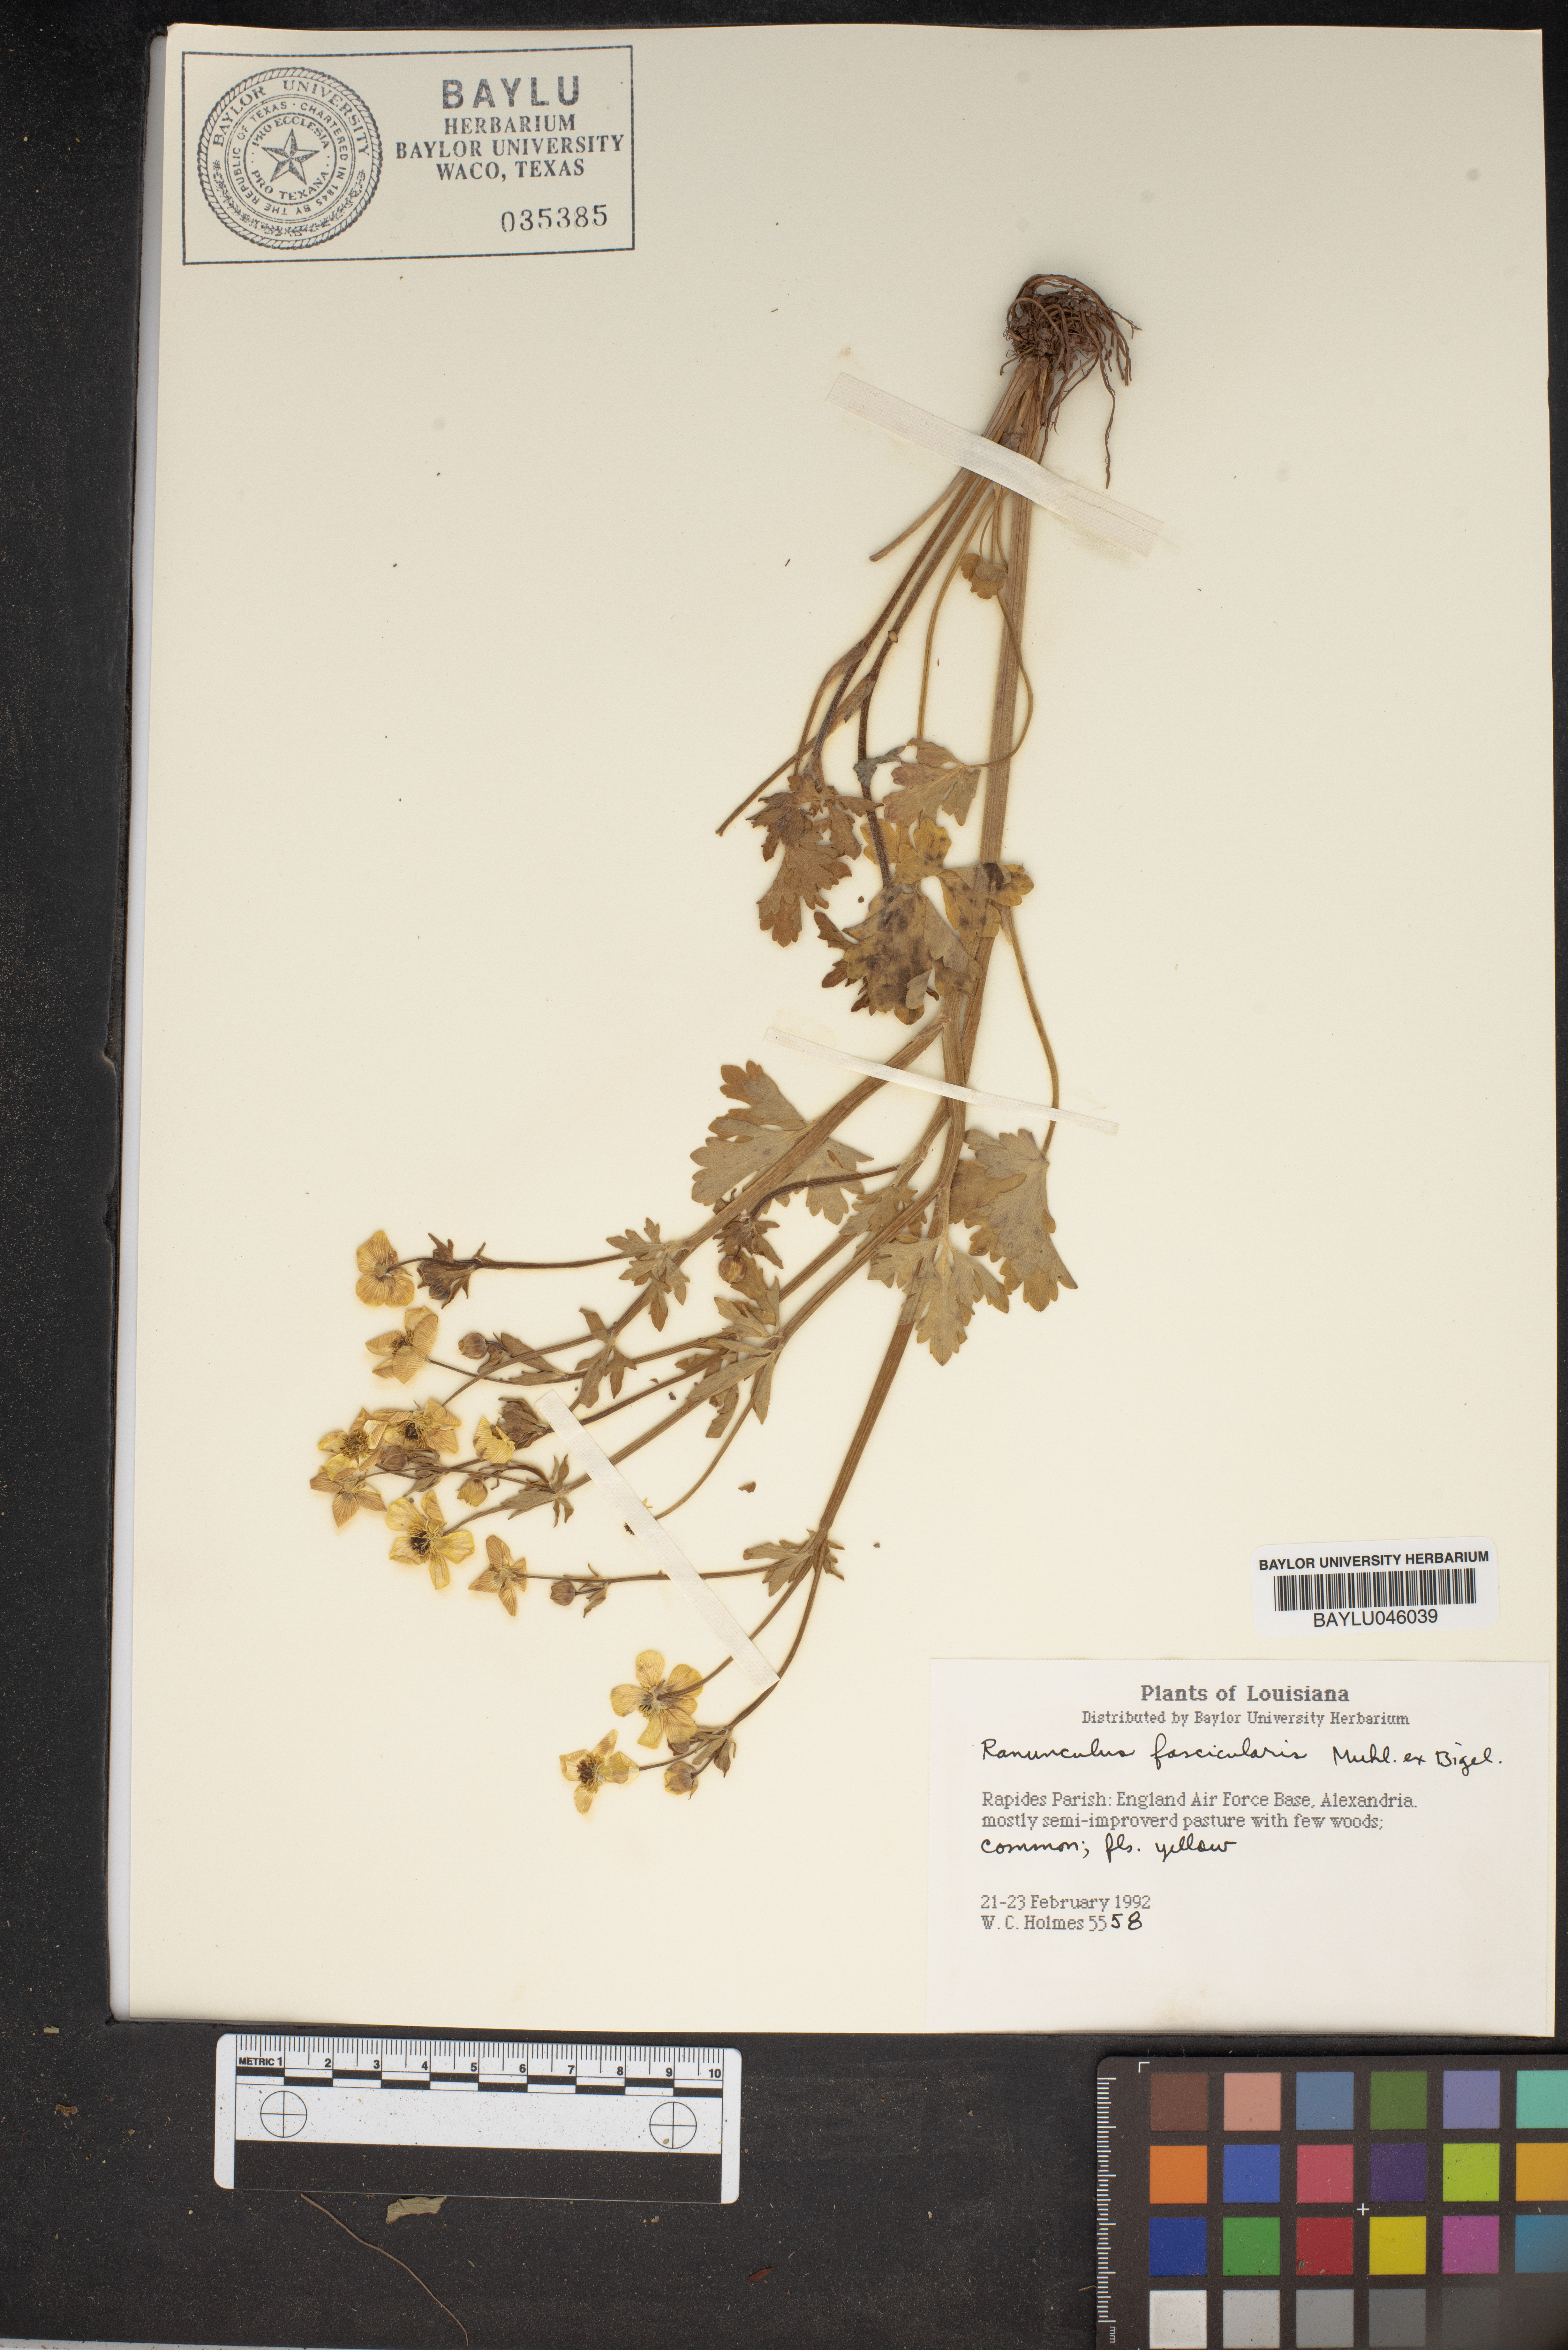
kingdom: Plantae
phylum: Tracheophyta
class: Magnoliopsida
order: Ranunculales
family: Ranunculaceae
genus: Ranunculus
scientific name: Ranunculus fascicularis
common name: Early buttercup
